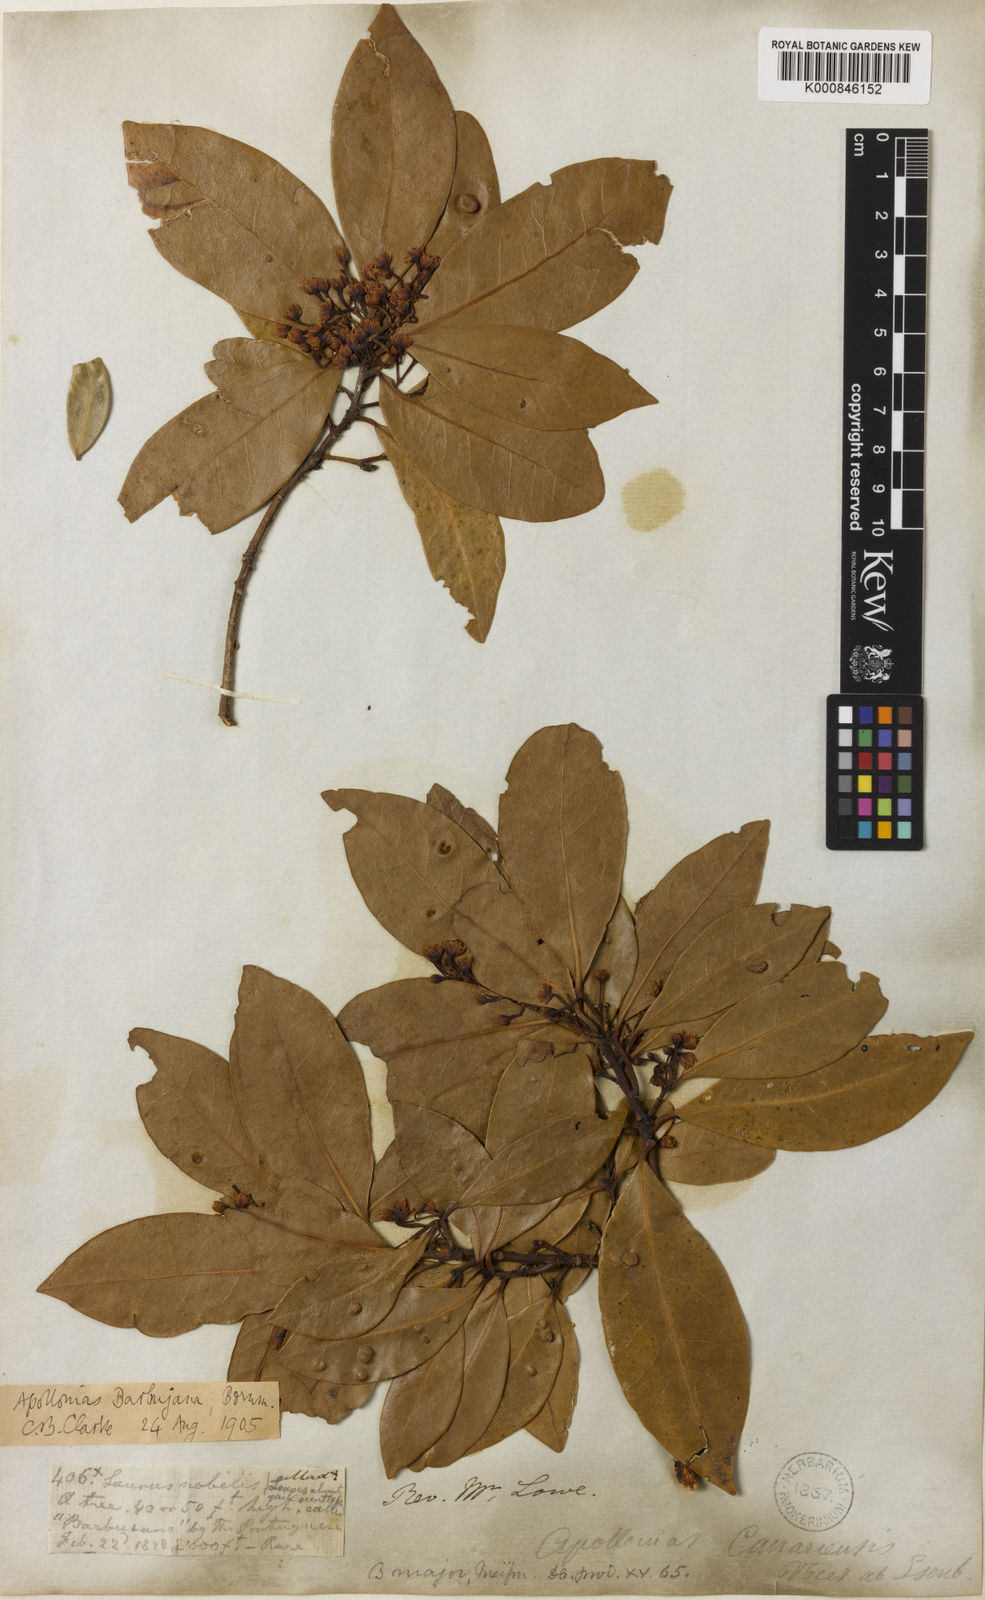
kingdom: Plantae
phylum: Tracheophyta
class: Magnoliopsida
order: Laurales
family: Lauraceae
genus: Apollonias
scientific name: Apollonias barbujana
